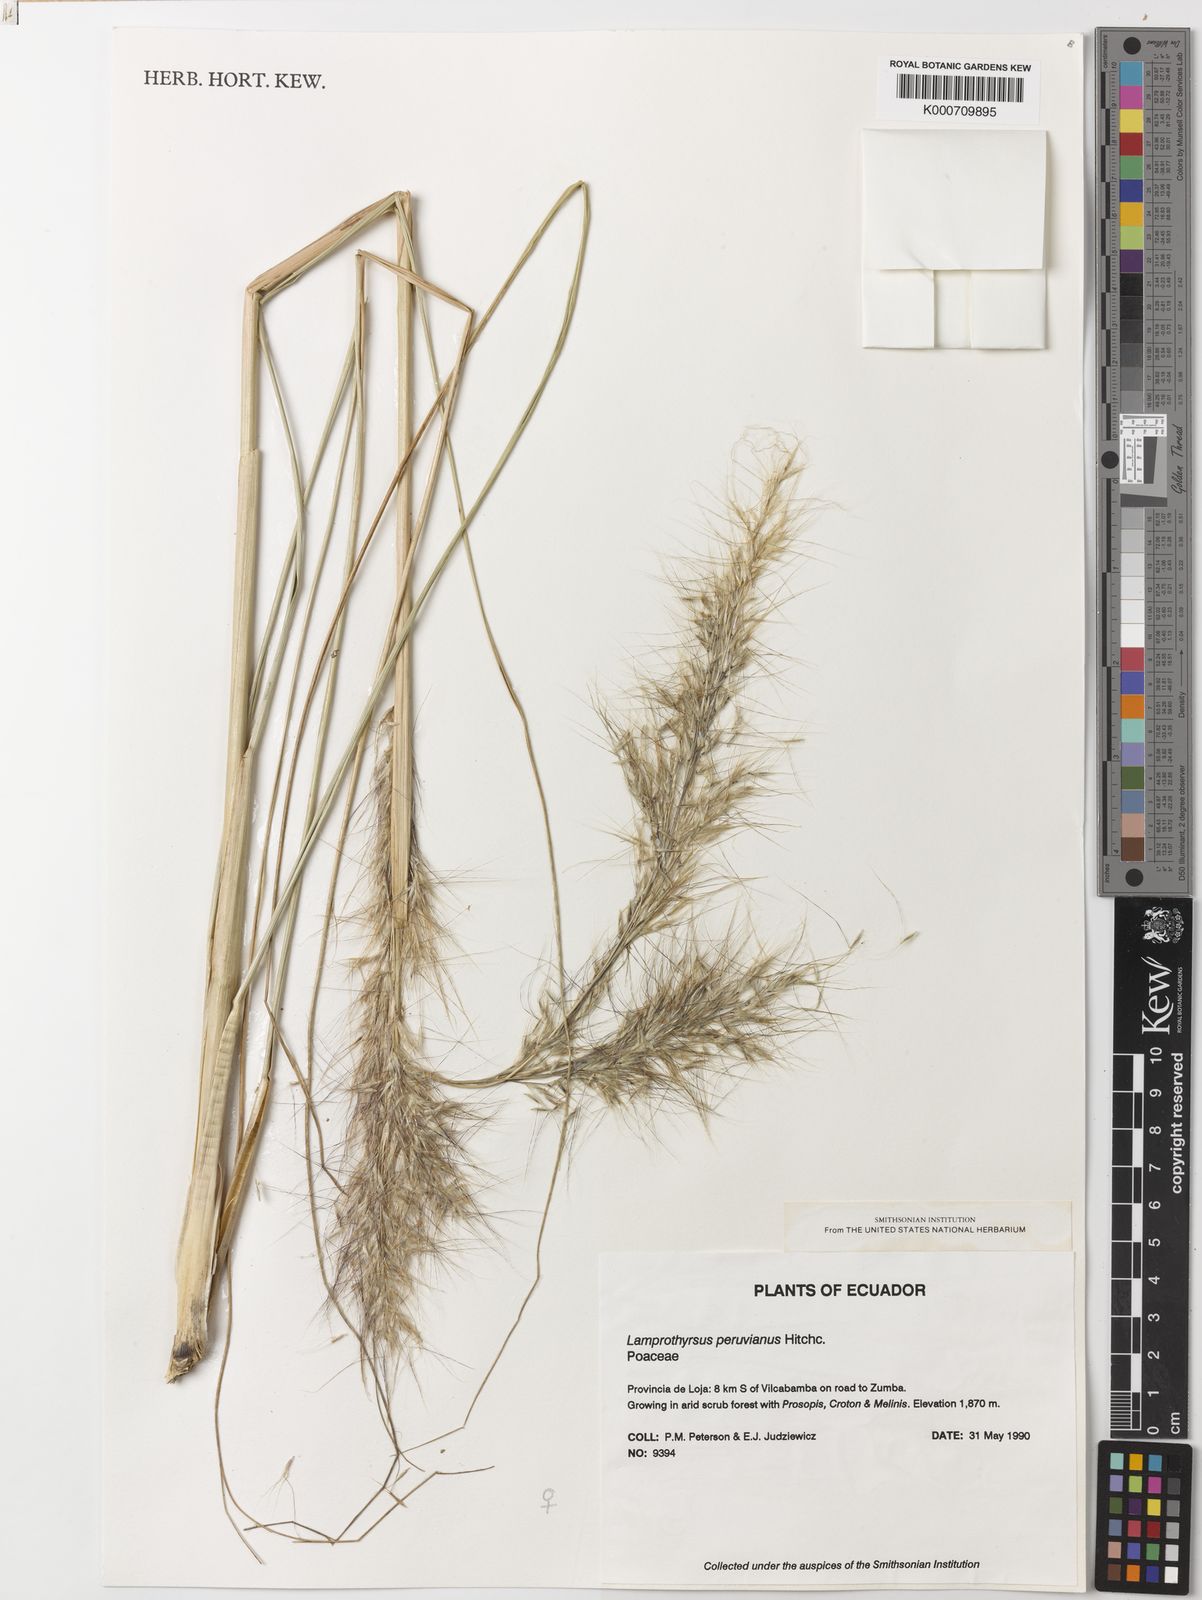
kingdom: Plantae
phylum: Tracheophyta
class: Liliopsida
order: Poales
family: Poaceae
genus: Cortaderia
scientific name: Cortaderia hieronymi
